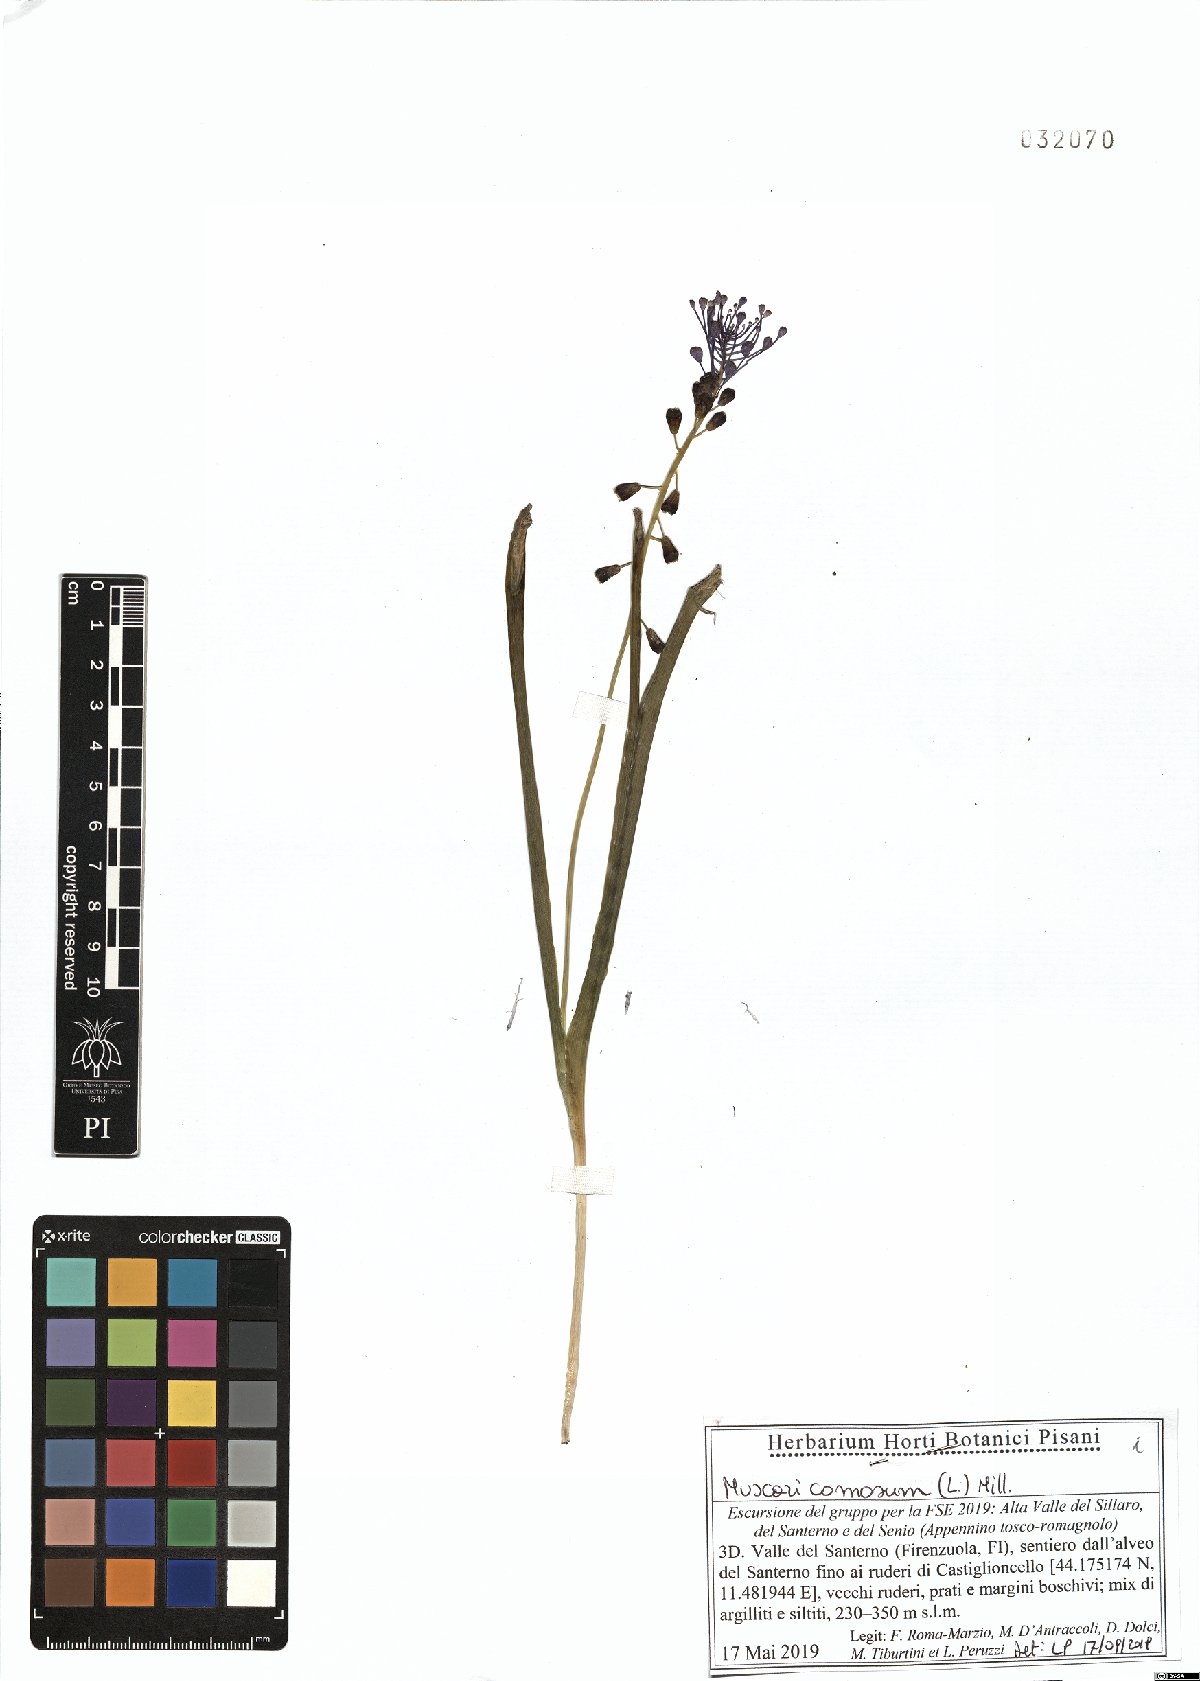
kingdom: Plantae
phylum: Tracheophyta
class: Liliopsida
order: Asparagales
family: Asparagaceae
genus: Muscari
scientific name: Muscari comosum
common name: Tassel hyacinth
